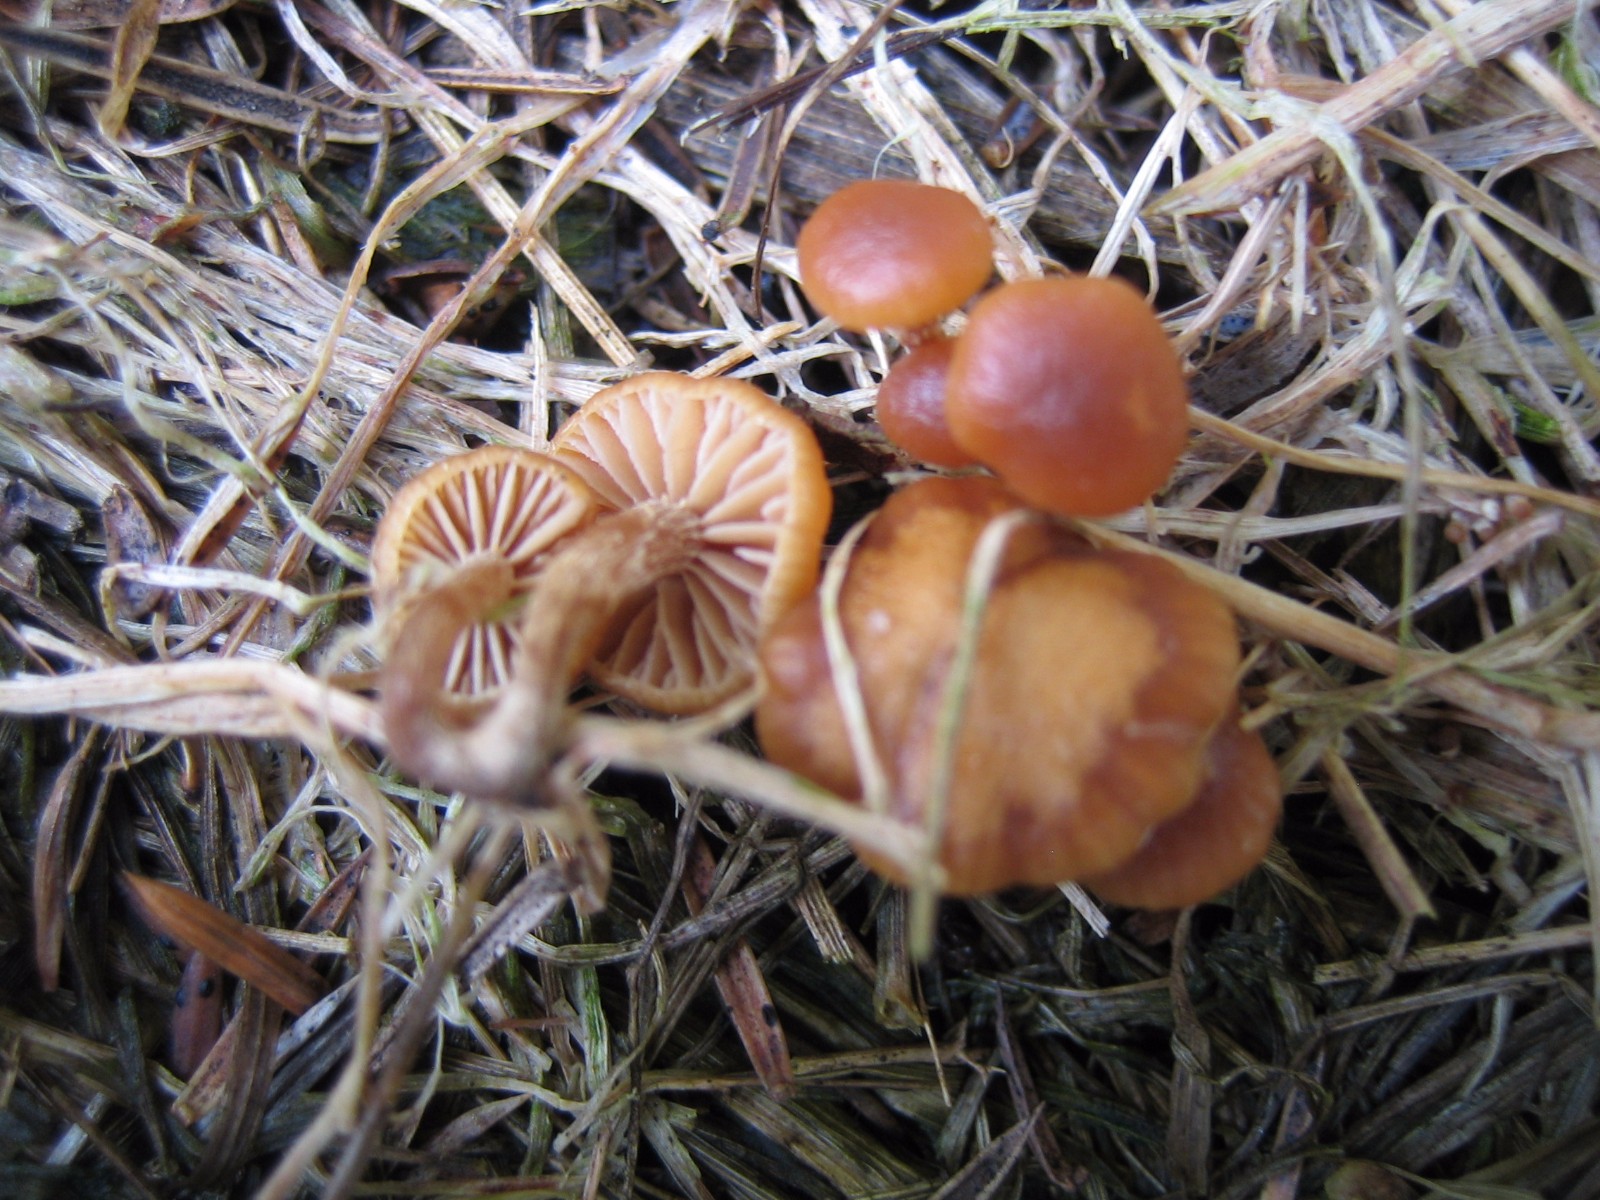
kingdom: Fungi
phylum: Basidiomycota
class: Agaricomycetes
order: Agaricales
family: Strophariaceae
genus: Deconica
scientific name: Deconica
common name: stråhat
